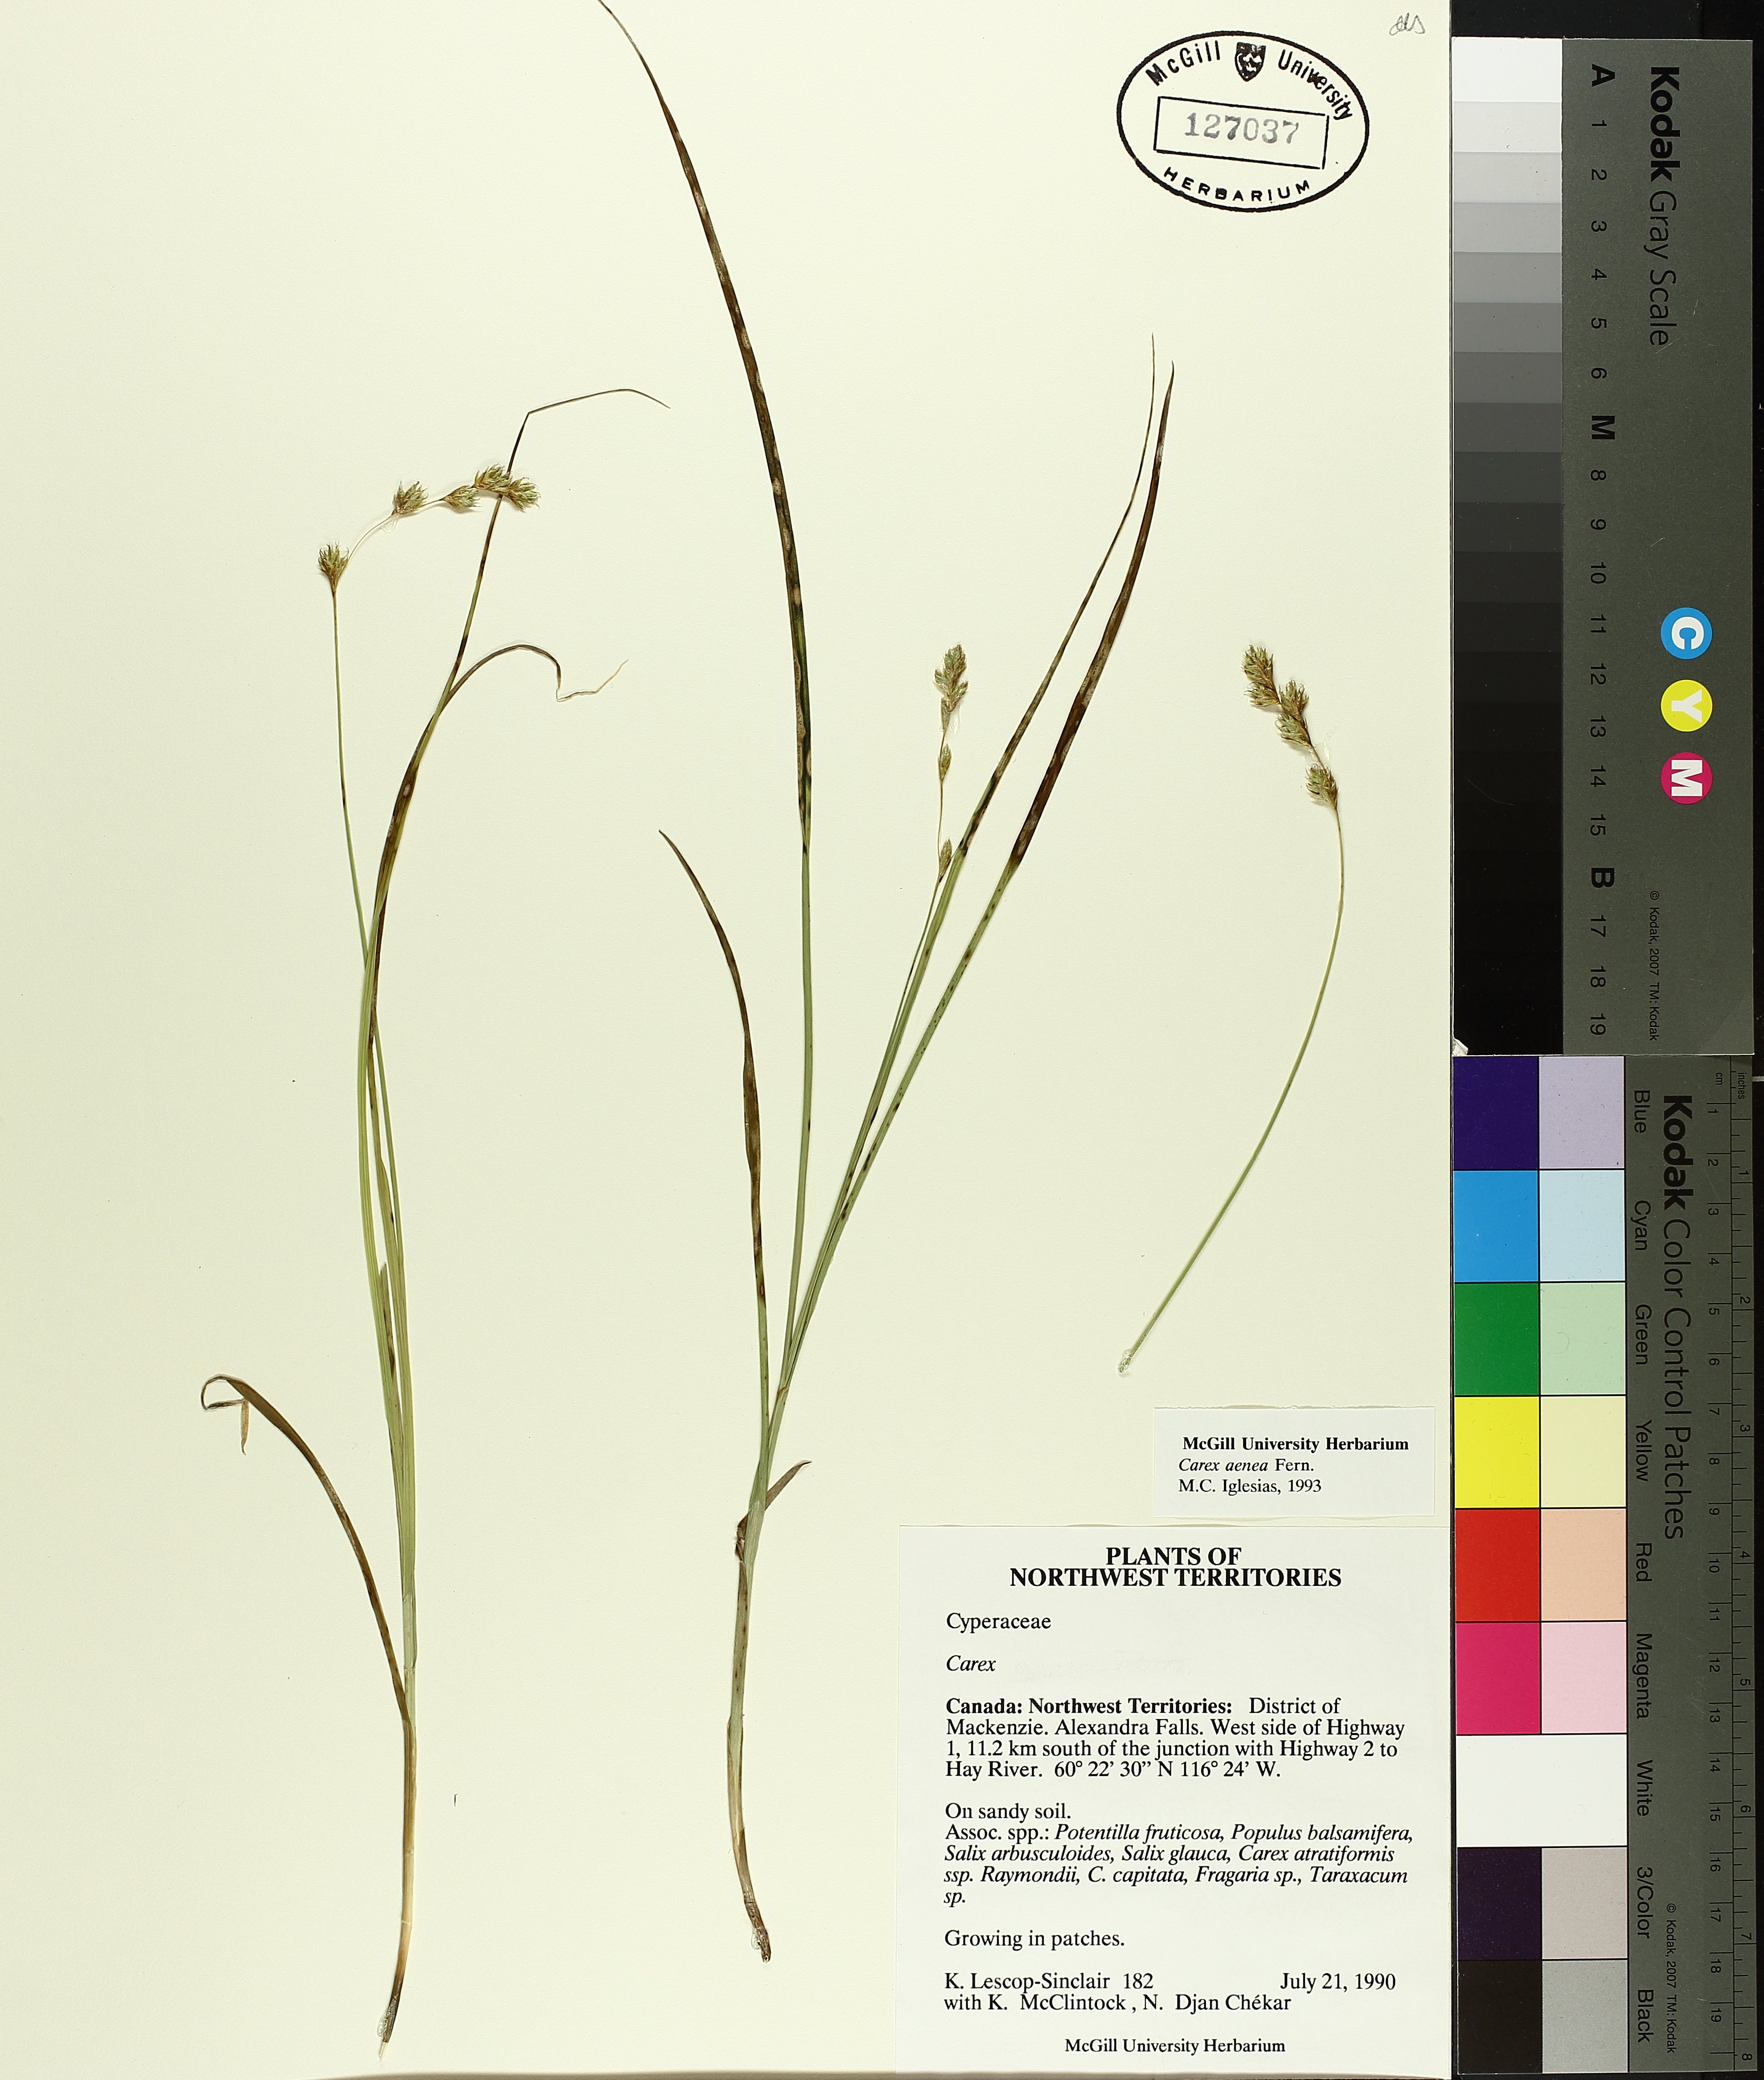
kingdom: Plantae
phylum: Tracheophyta
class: Liliopsida
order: Poales
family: Cyperaceae
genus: Carex
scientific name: Carex foenea
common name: Bronze sedge
